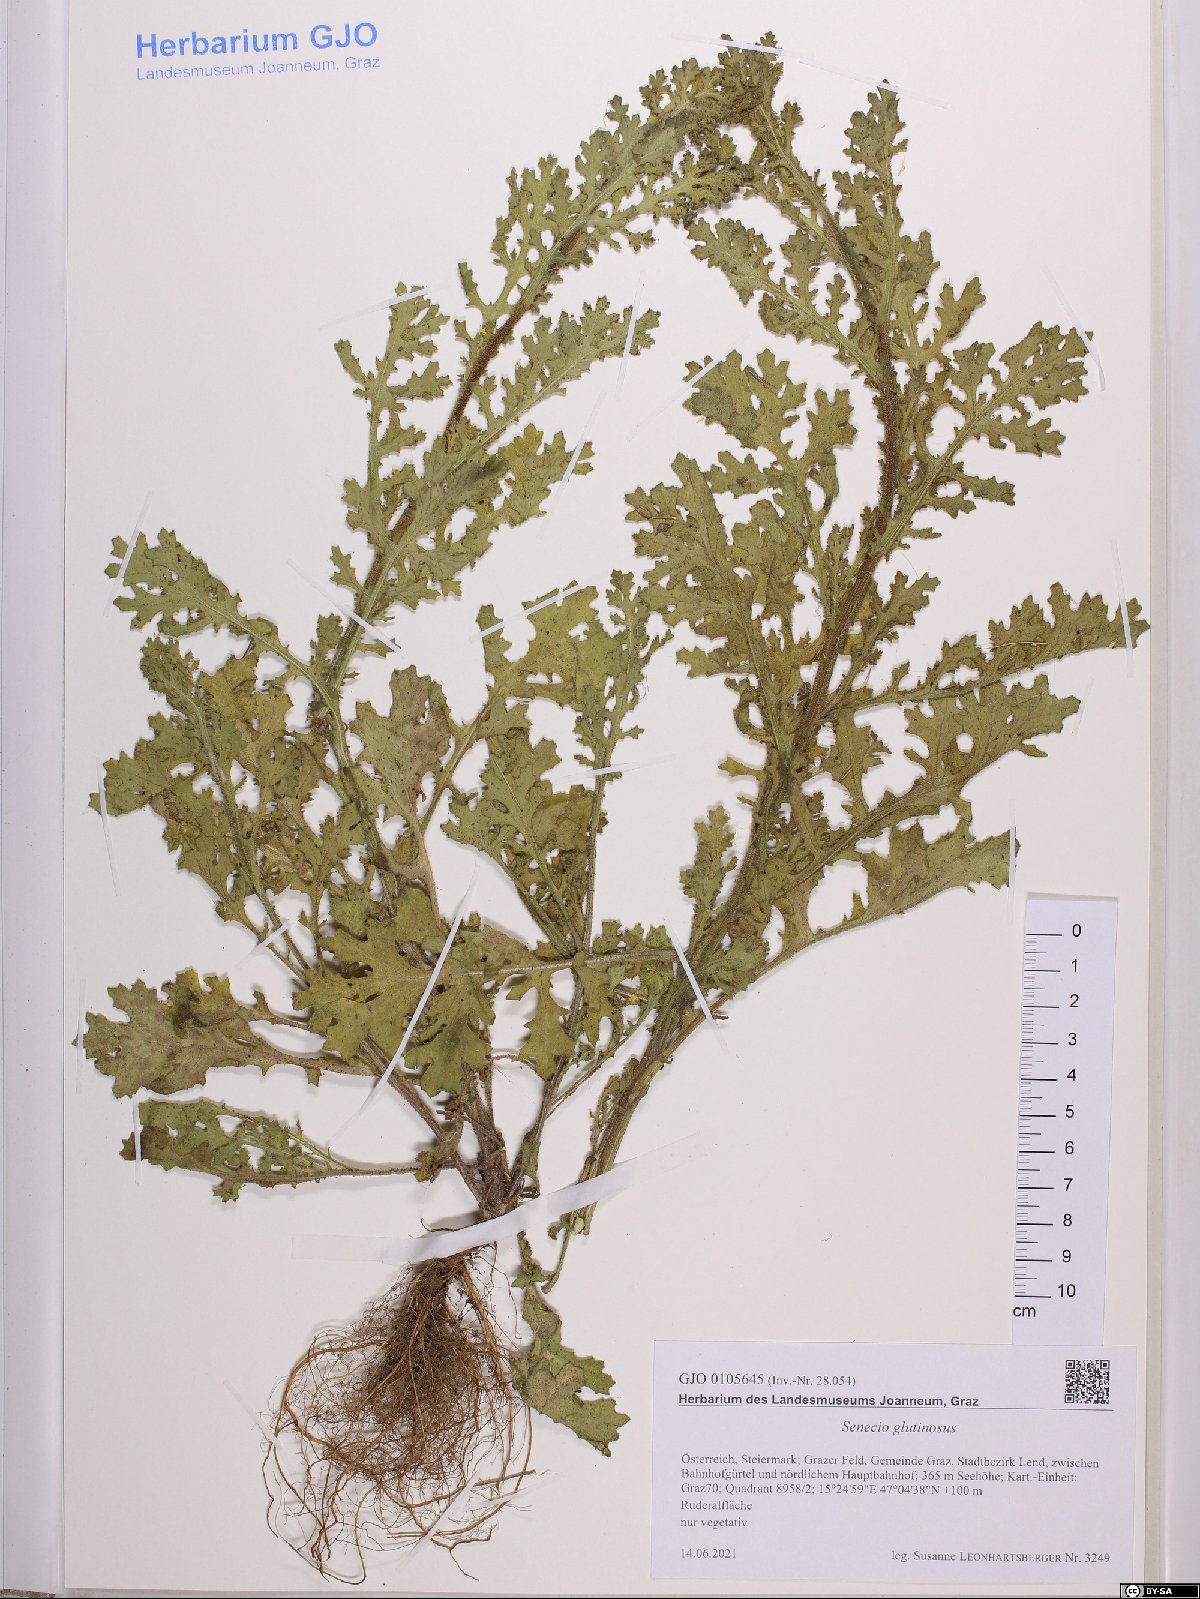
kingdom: Plantae
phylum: Tracheophyta
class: Magnoliopsida
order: Asterales
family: Asteraceae
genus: Senecio
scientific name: Senecio viscosus
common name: Sticky groundsel
